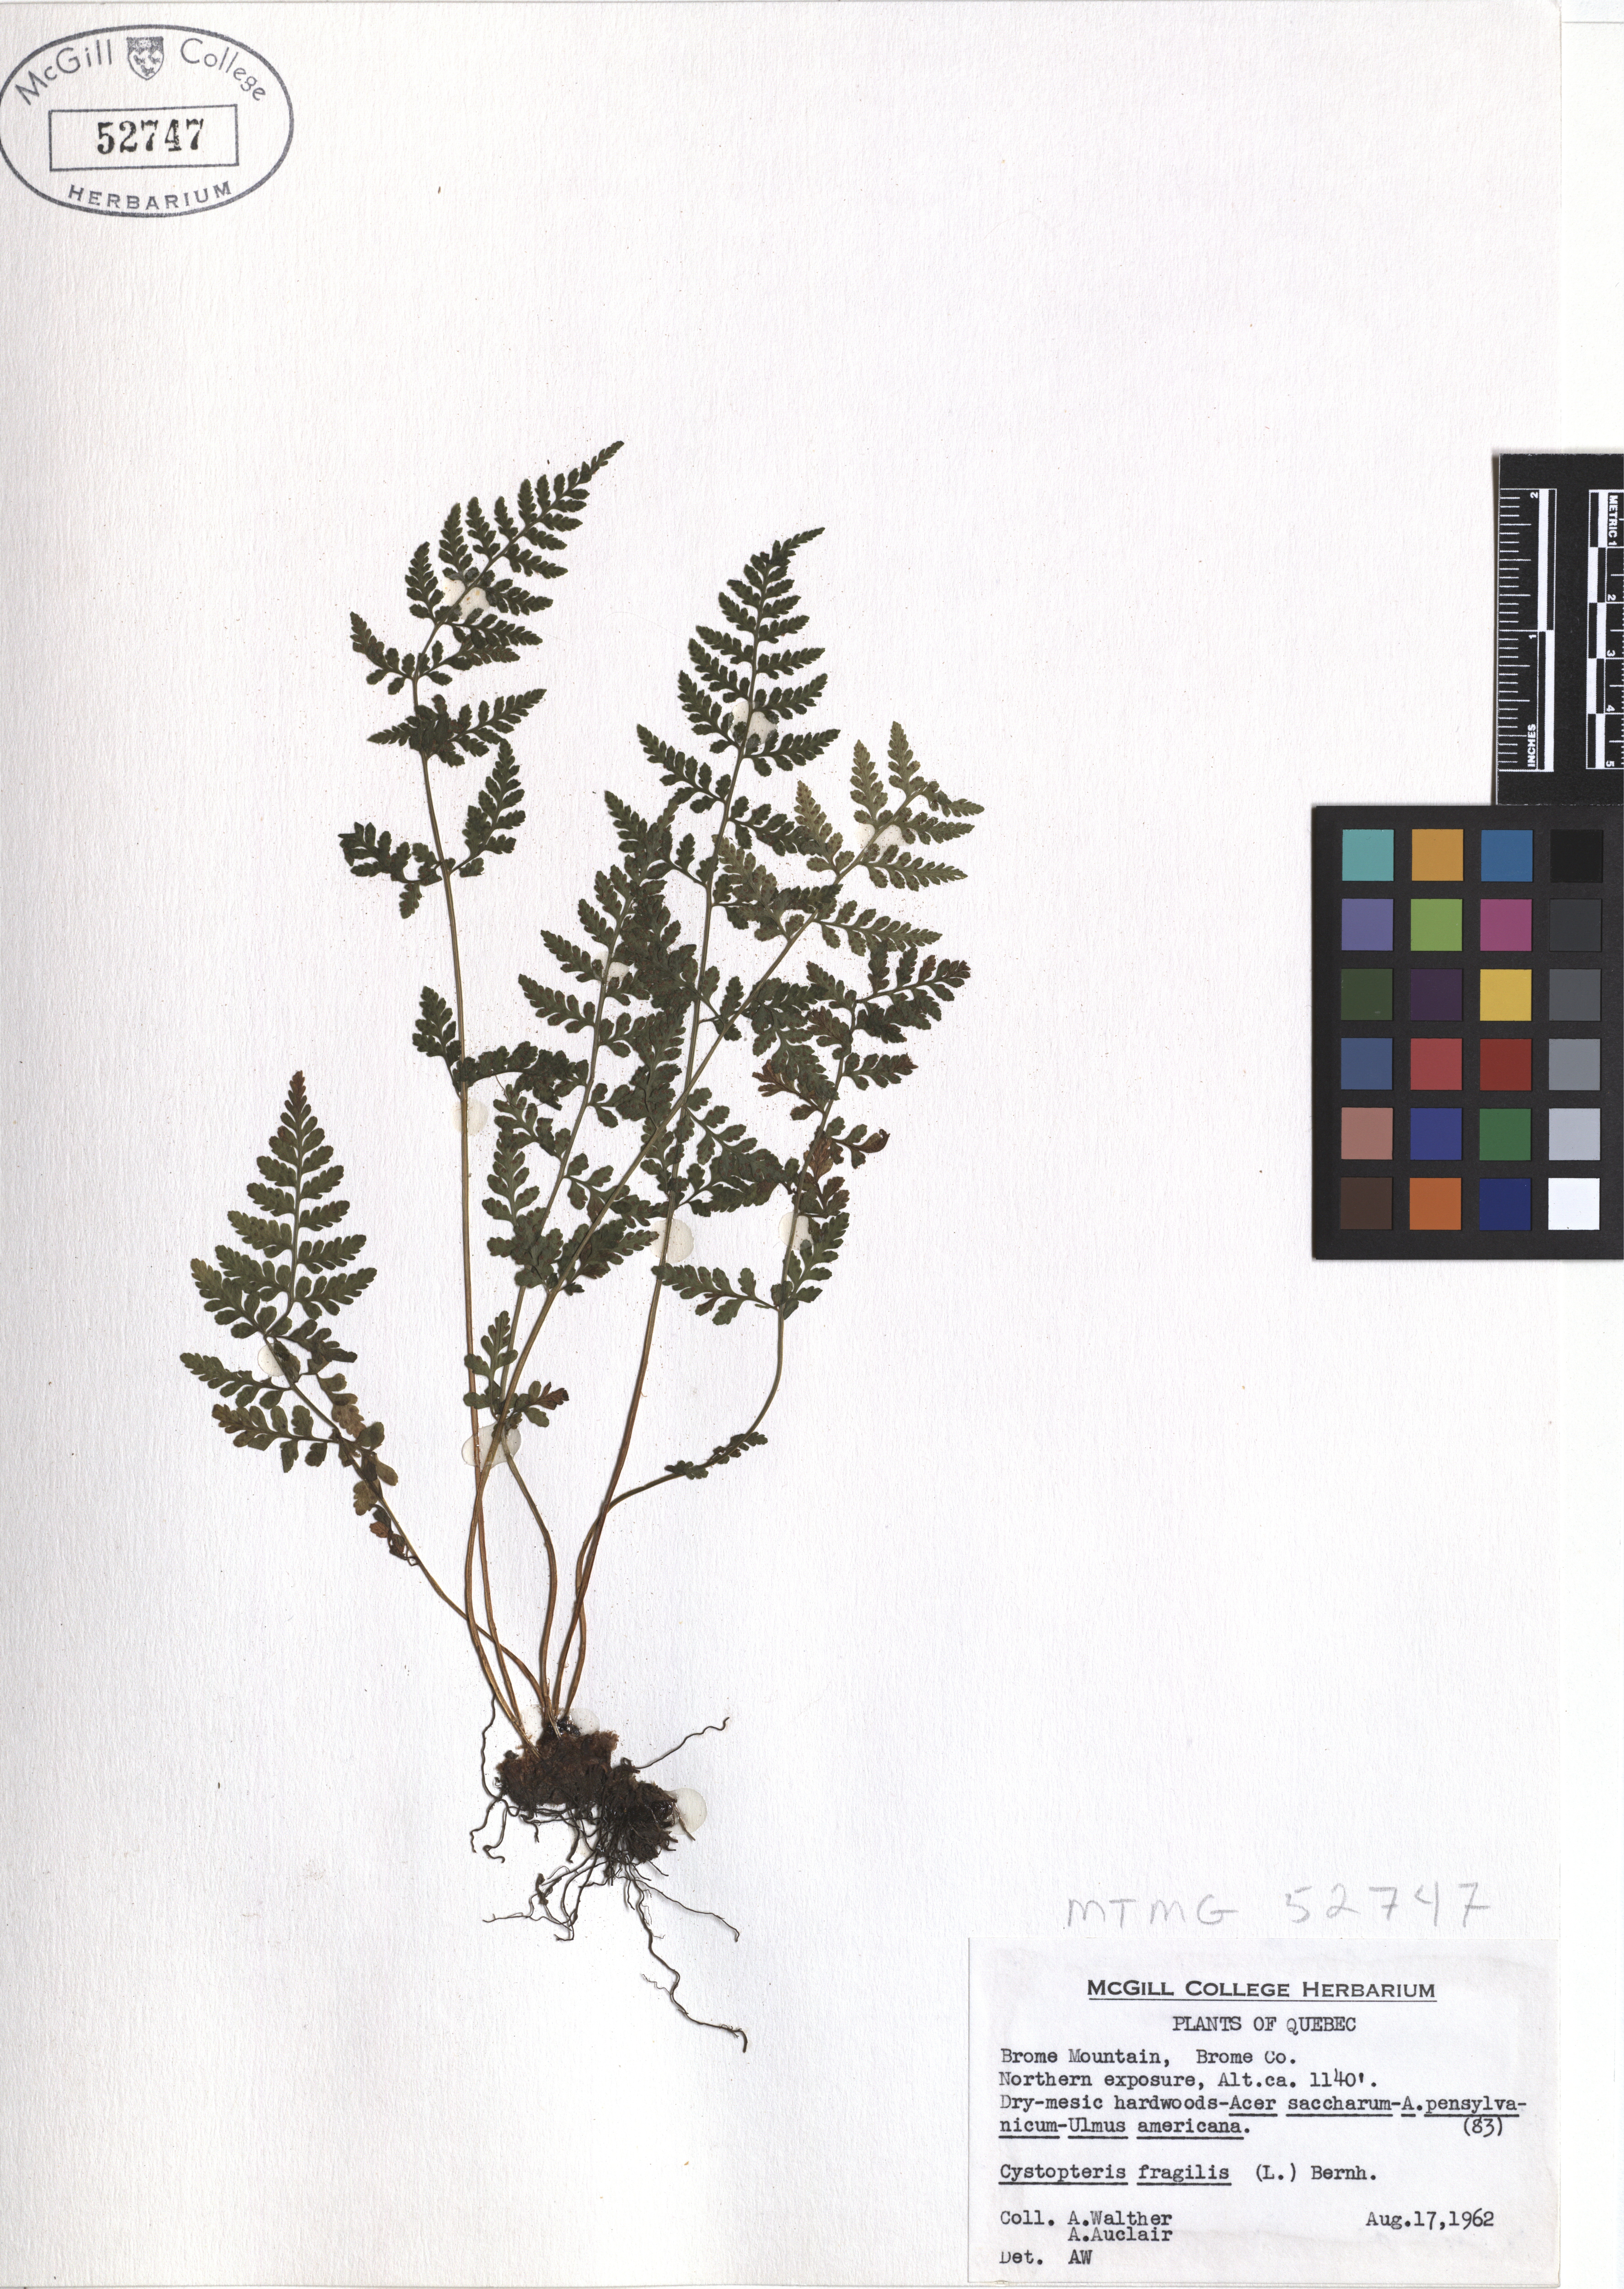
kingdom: Plantae
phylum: Tracheophyta
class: Polypodiopsida
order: Polypodiales
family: Cystopteridaceae
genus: Cystopteris
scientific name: Cystopteris fragilis
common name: Brittle bladder fern
